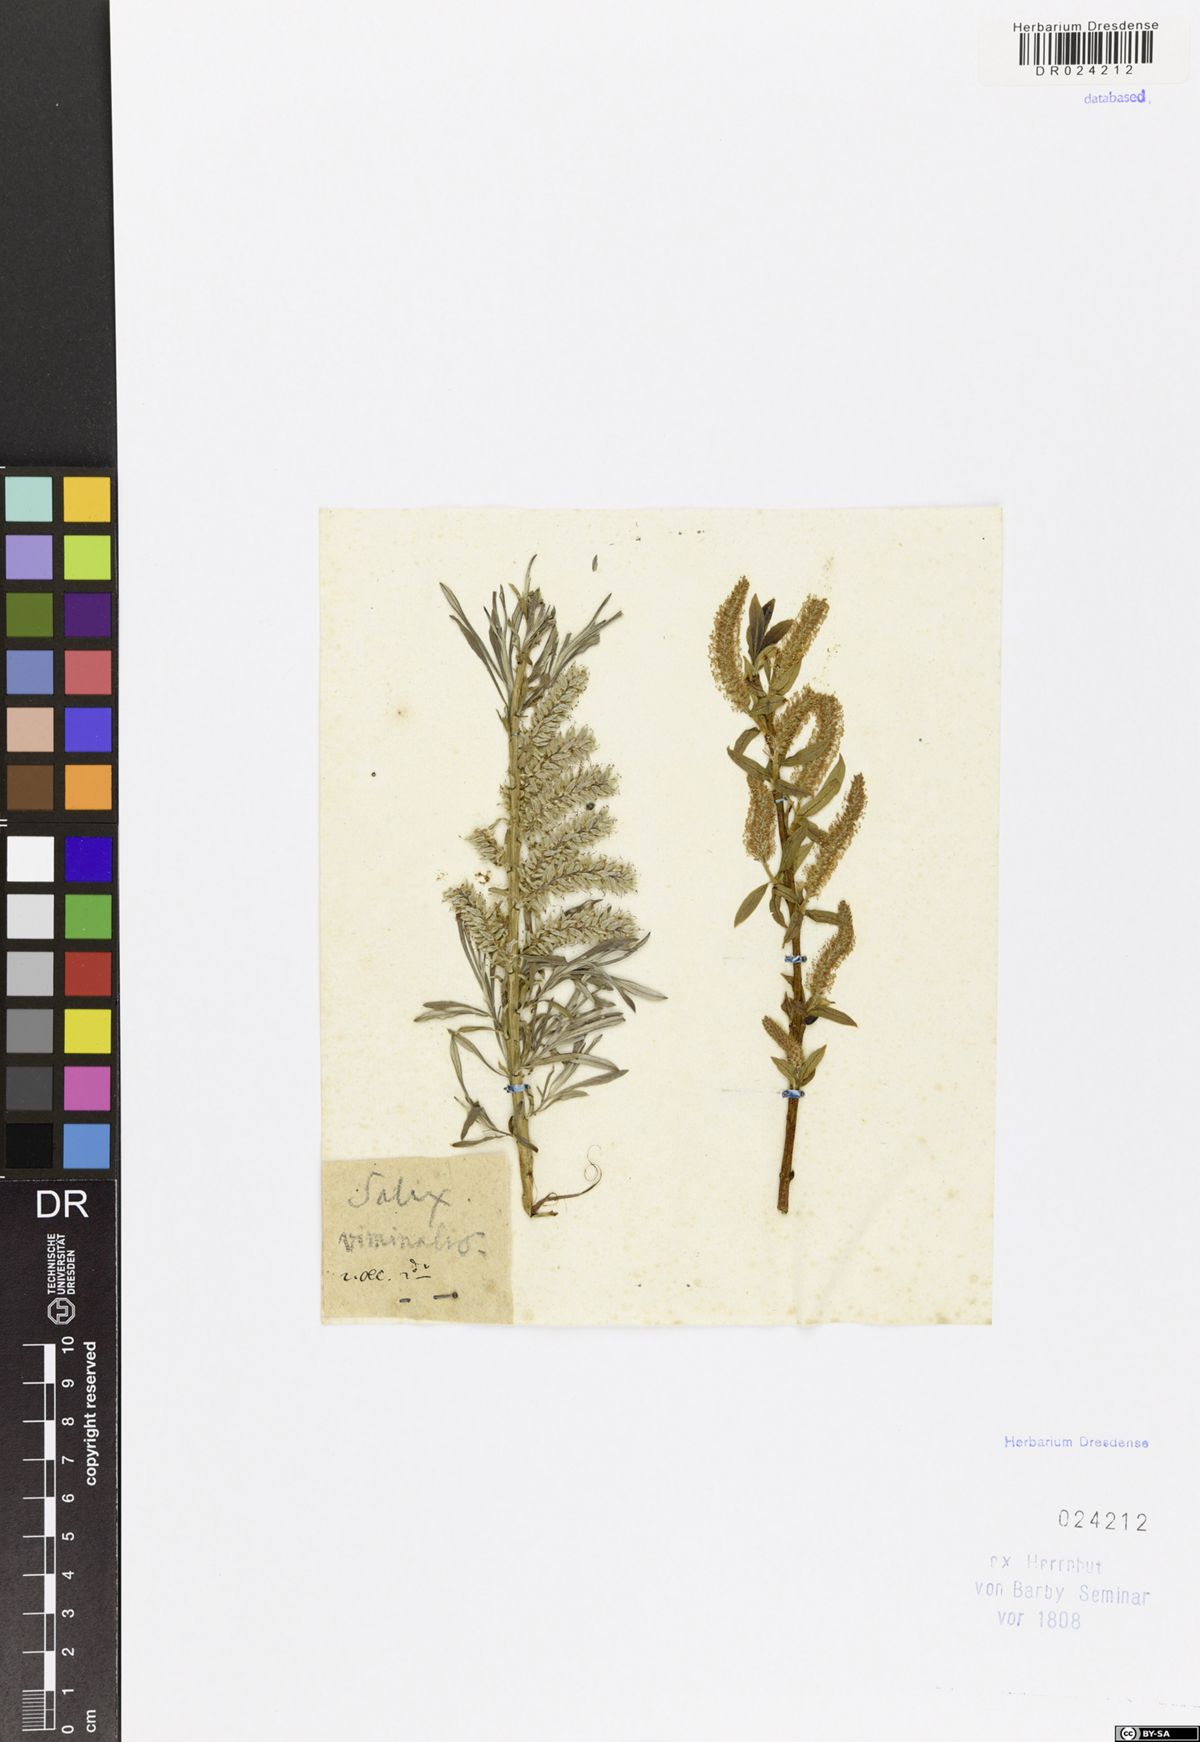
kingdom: Plantae
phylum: Tracheophyta
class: Magnoliopsida
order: Malpighiales
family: Salicaceae
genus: Salix
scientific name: Salix viminalis
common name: Osier
